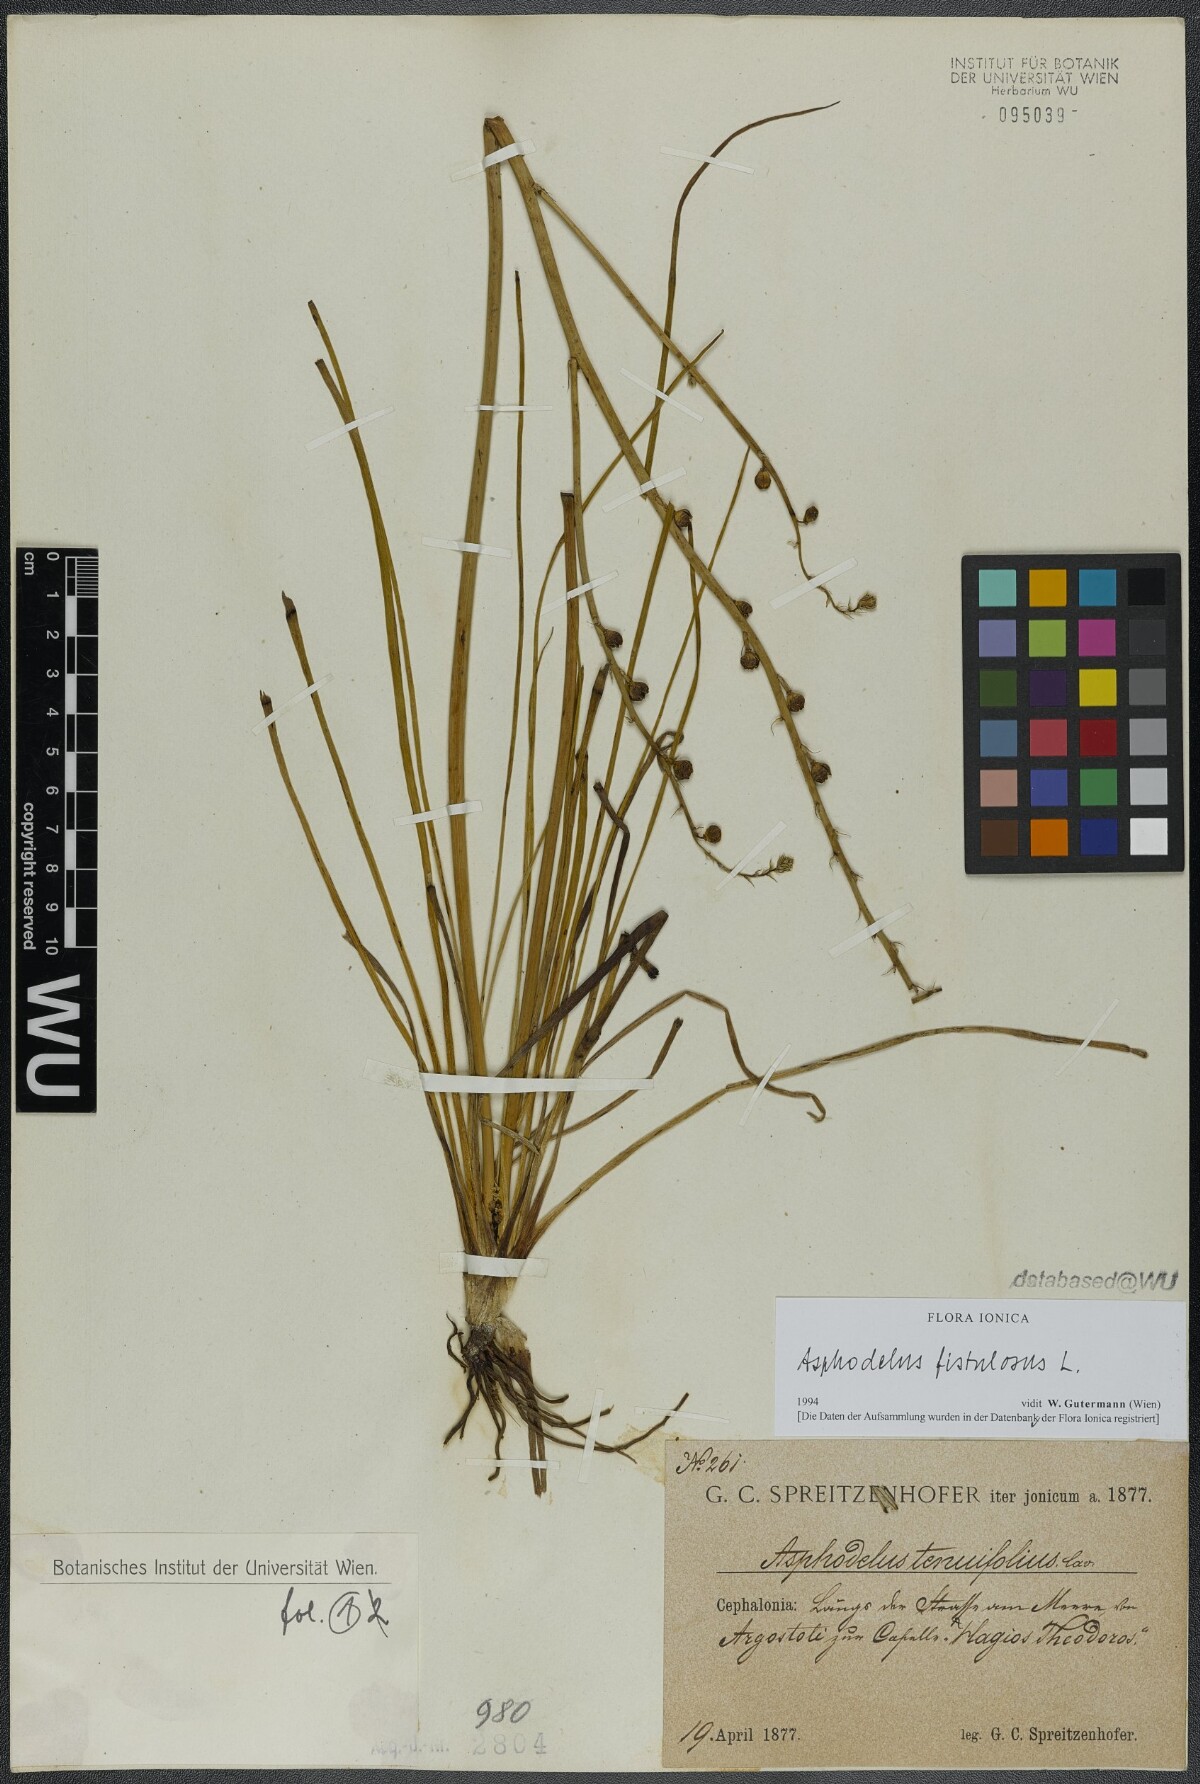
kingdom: Plantae
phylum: Tracheophyta
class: Liliopsida
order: Asparagales
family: Asphodelaceae
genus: Asphodelus
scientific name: Asphodelus fistulosus
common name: Onionweed
